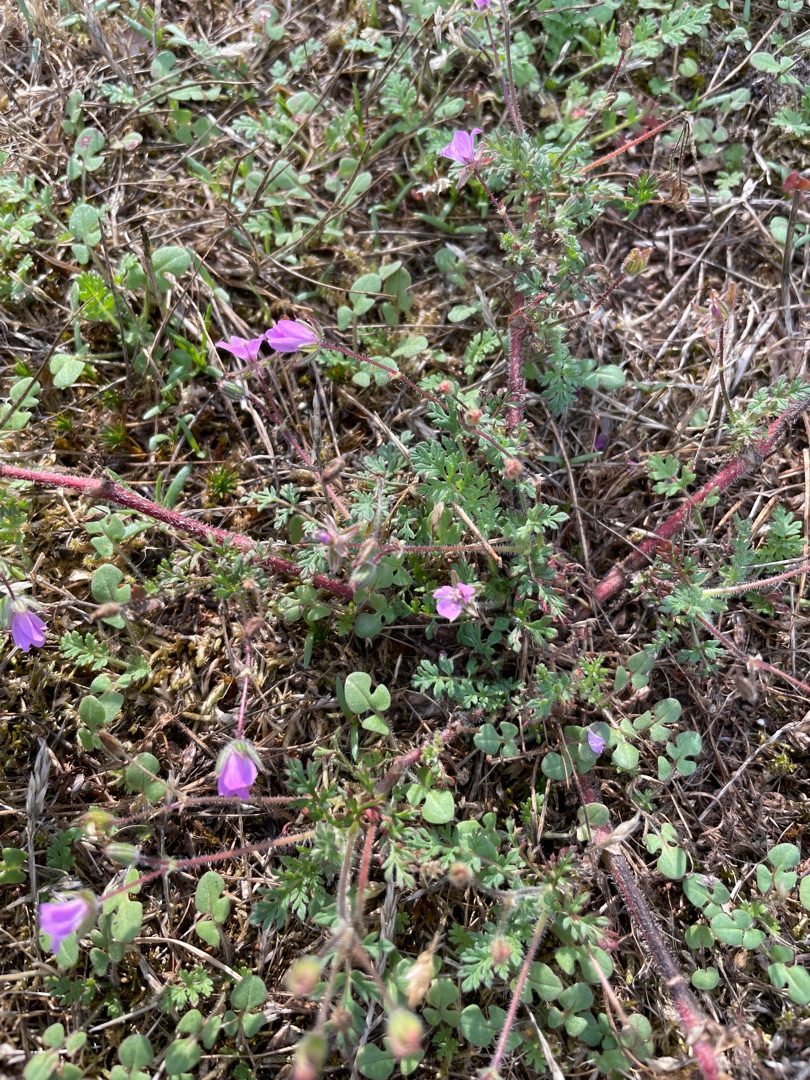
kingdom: Plantae
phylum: Tracheophyta
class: Magnoliopsida
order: Geraniales
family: Geraniaceae
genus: Erodium
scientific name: Erodium cicutarium
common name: Hejrenæb
